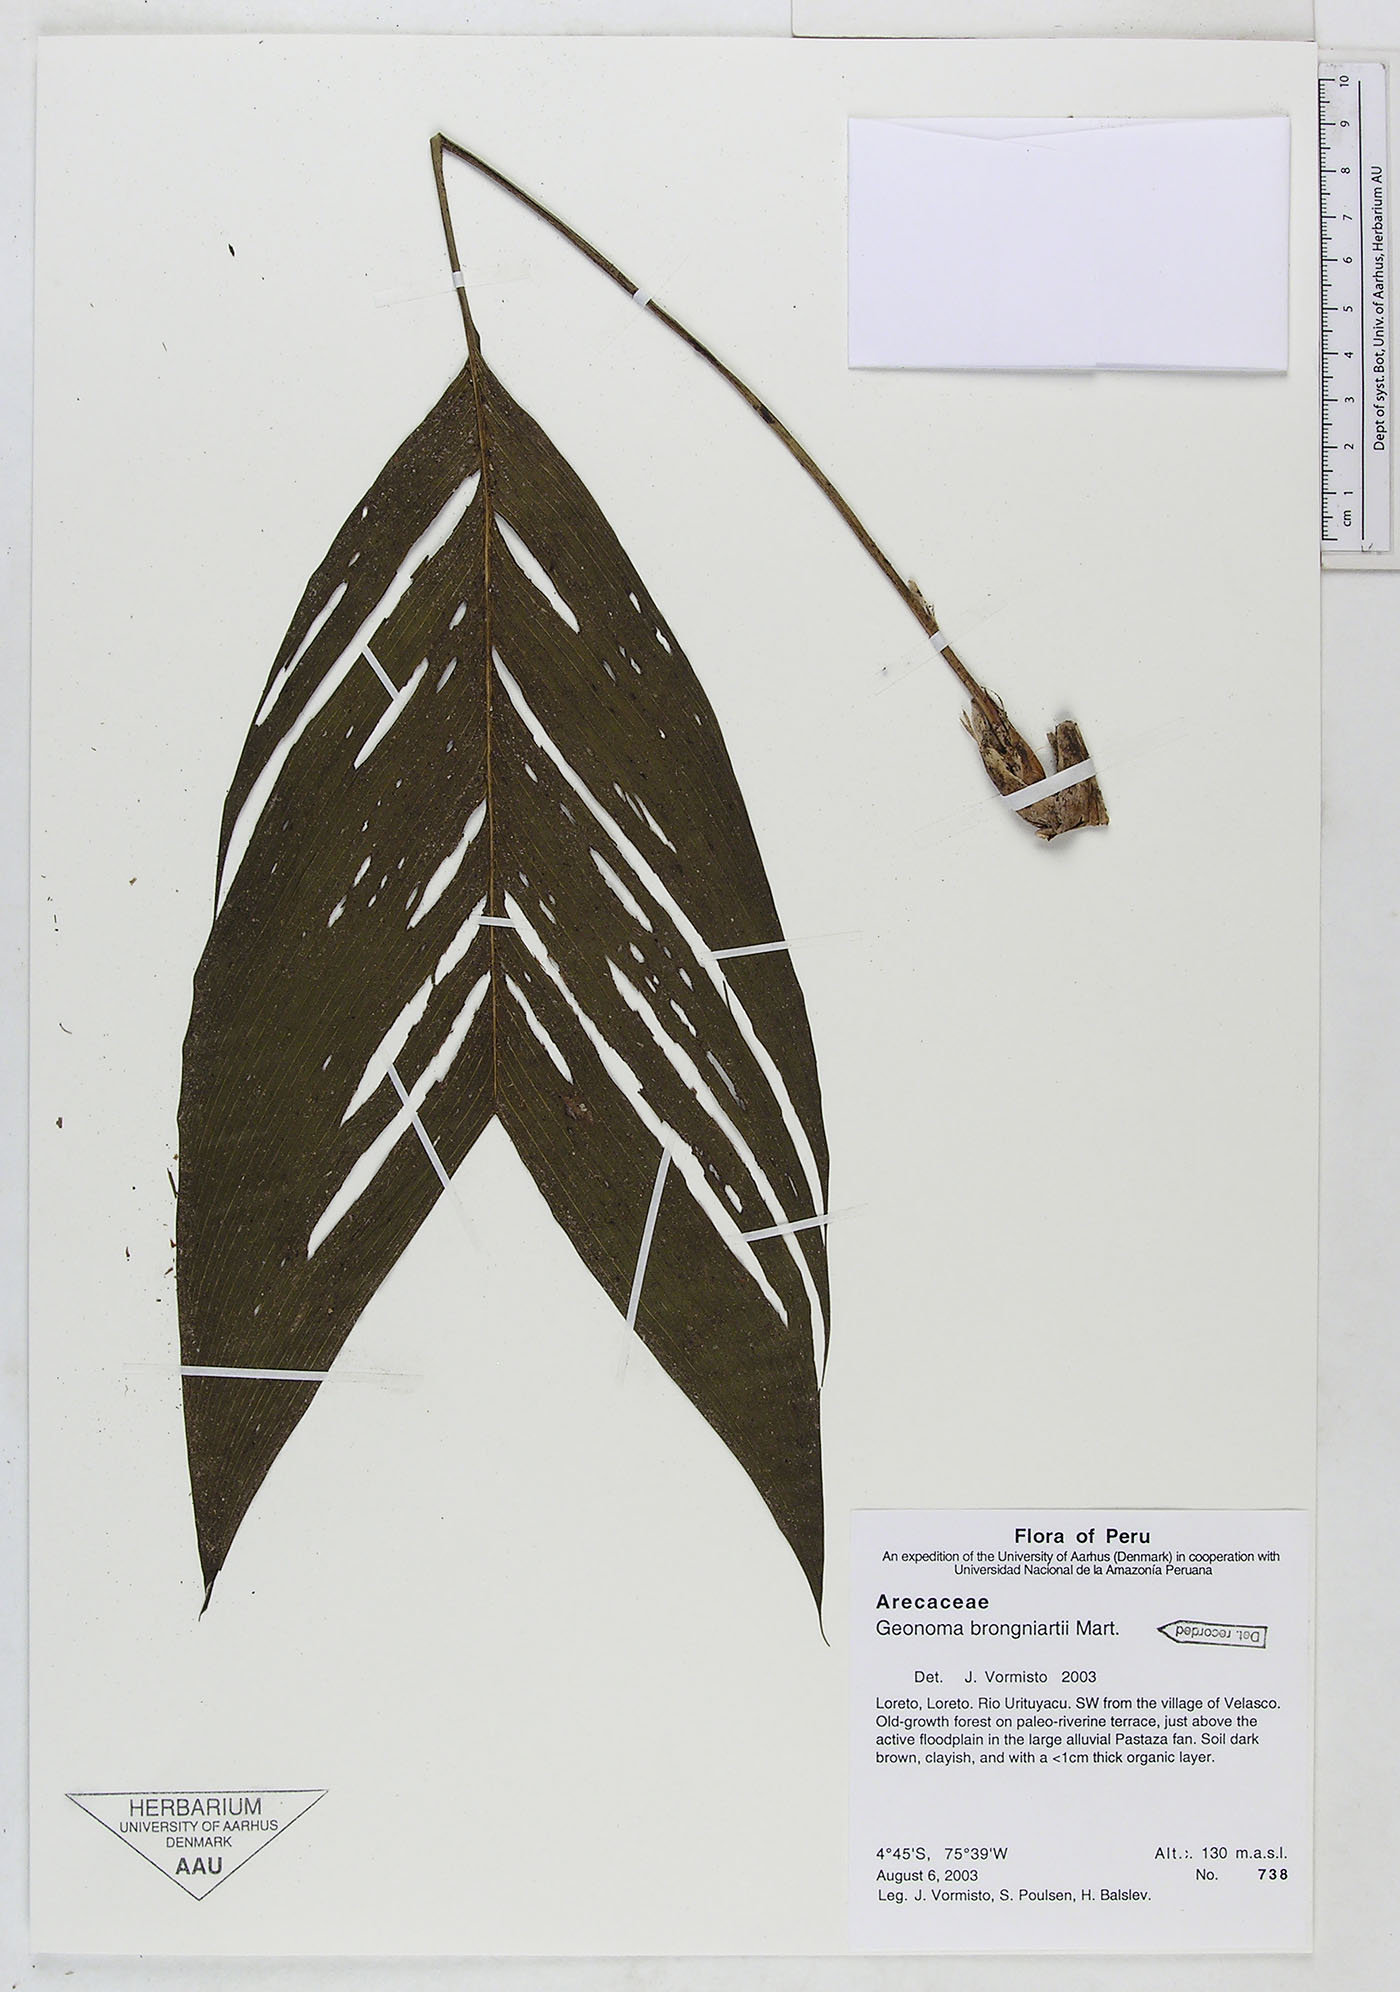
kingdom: Plantae
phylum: Tracheophyta
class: Liliopsida
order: Arecales
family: Arecaceae
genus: Geonoma
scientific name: Geonoma brongniartii
